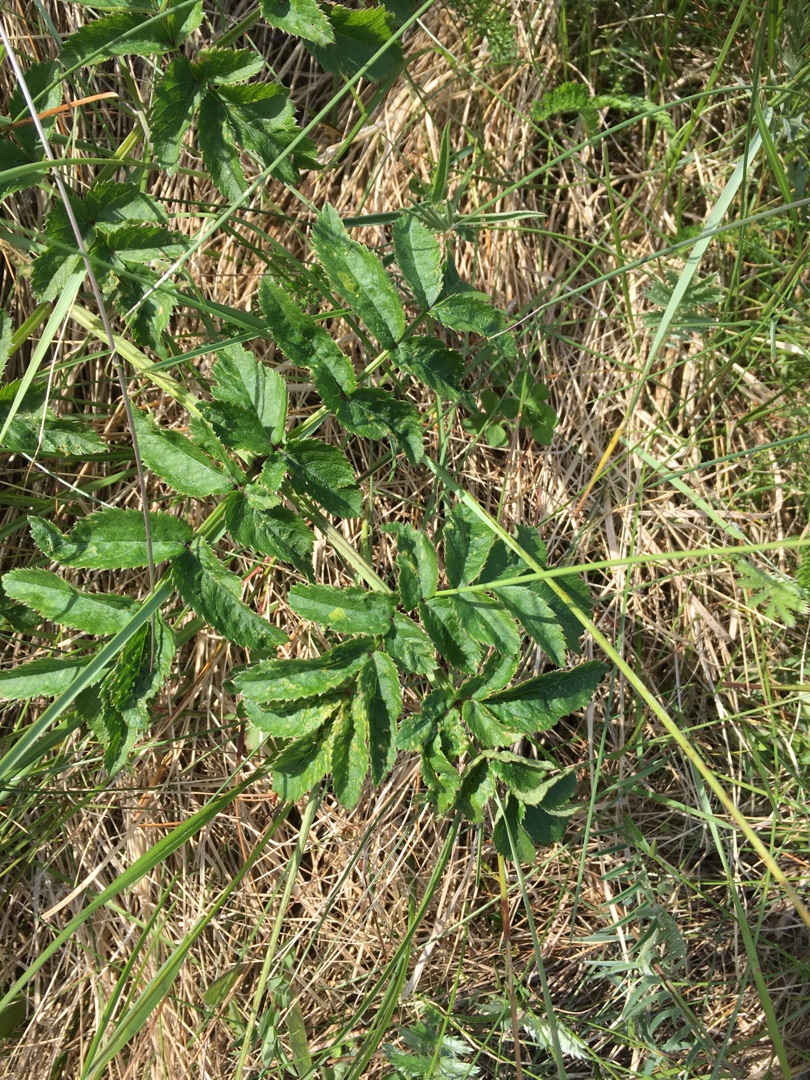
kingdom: Plantae
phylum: Tracheophyta
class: Magnoliopsida
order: Apiales
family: Apiaceae
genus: Angelica
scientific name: Angelica sylvestris
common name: Angelik
